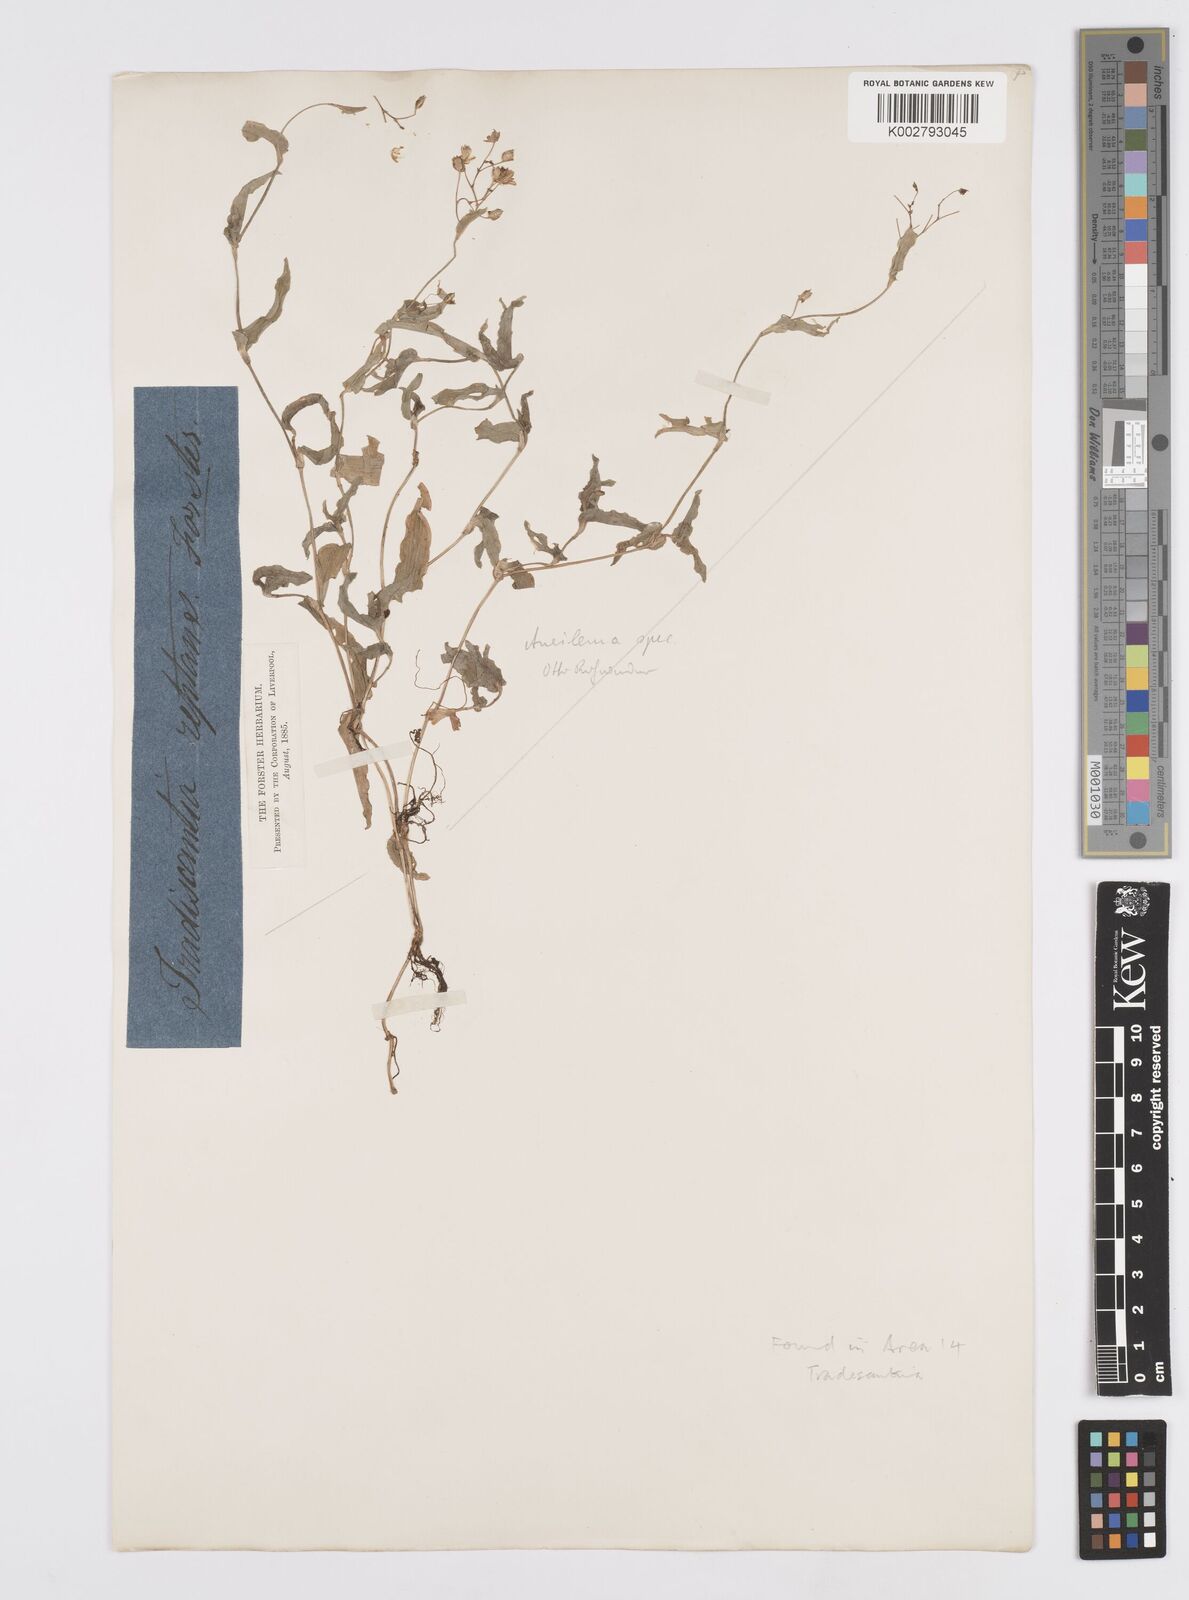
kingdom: Plantae
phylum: Tracheophyta
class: Liliopsida
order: Commelinales
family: Commelinaceae
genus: Murdannia
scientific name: Murdannia spirata
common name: Asiatic dewflower
